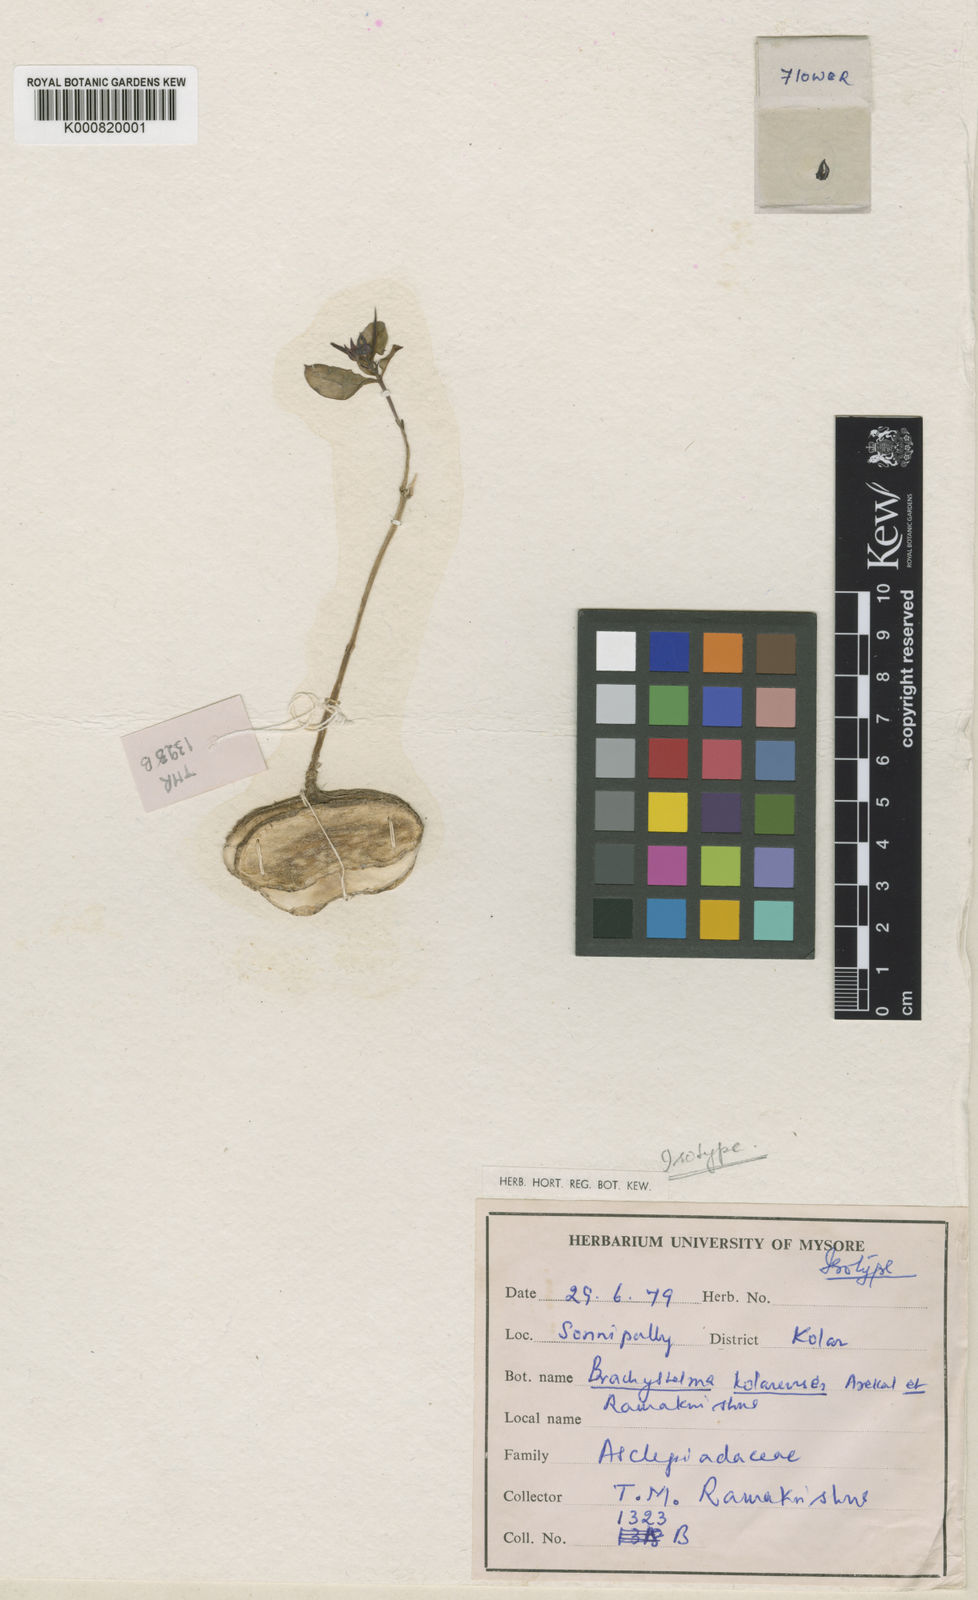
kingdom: Plantae
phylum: Tracheophyta
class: Magnoliopsida
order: Gentianales
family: Apocynaceae
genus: Ceropegia
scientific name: Ceropegia kolarensis
